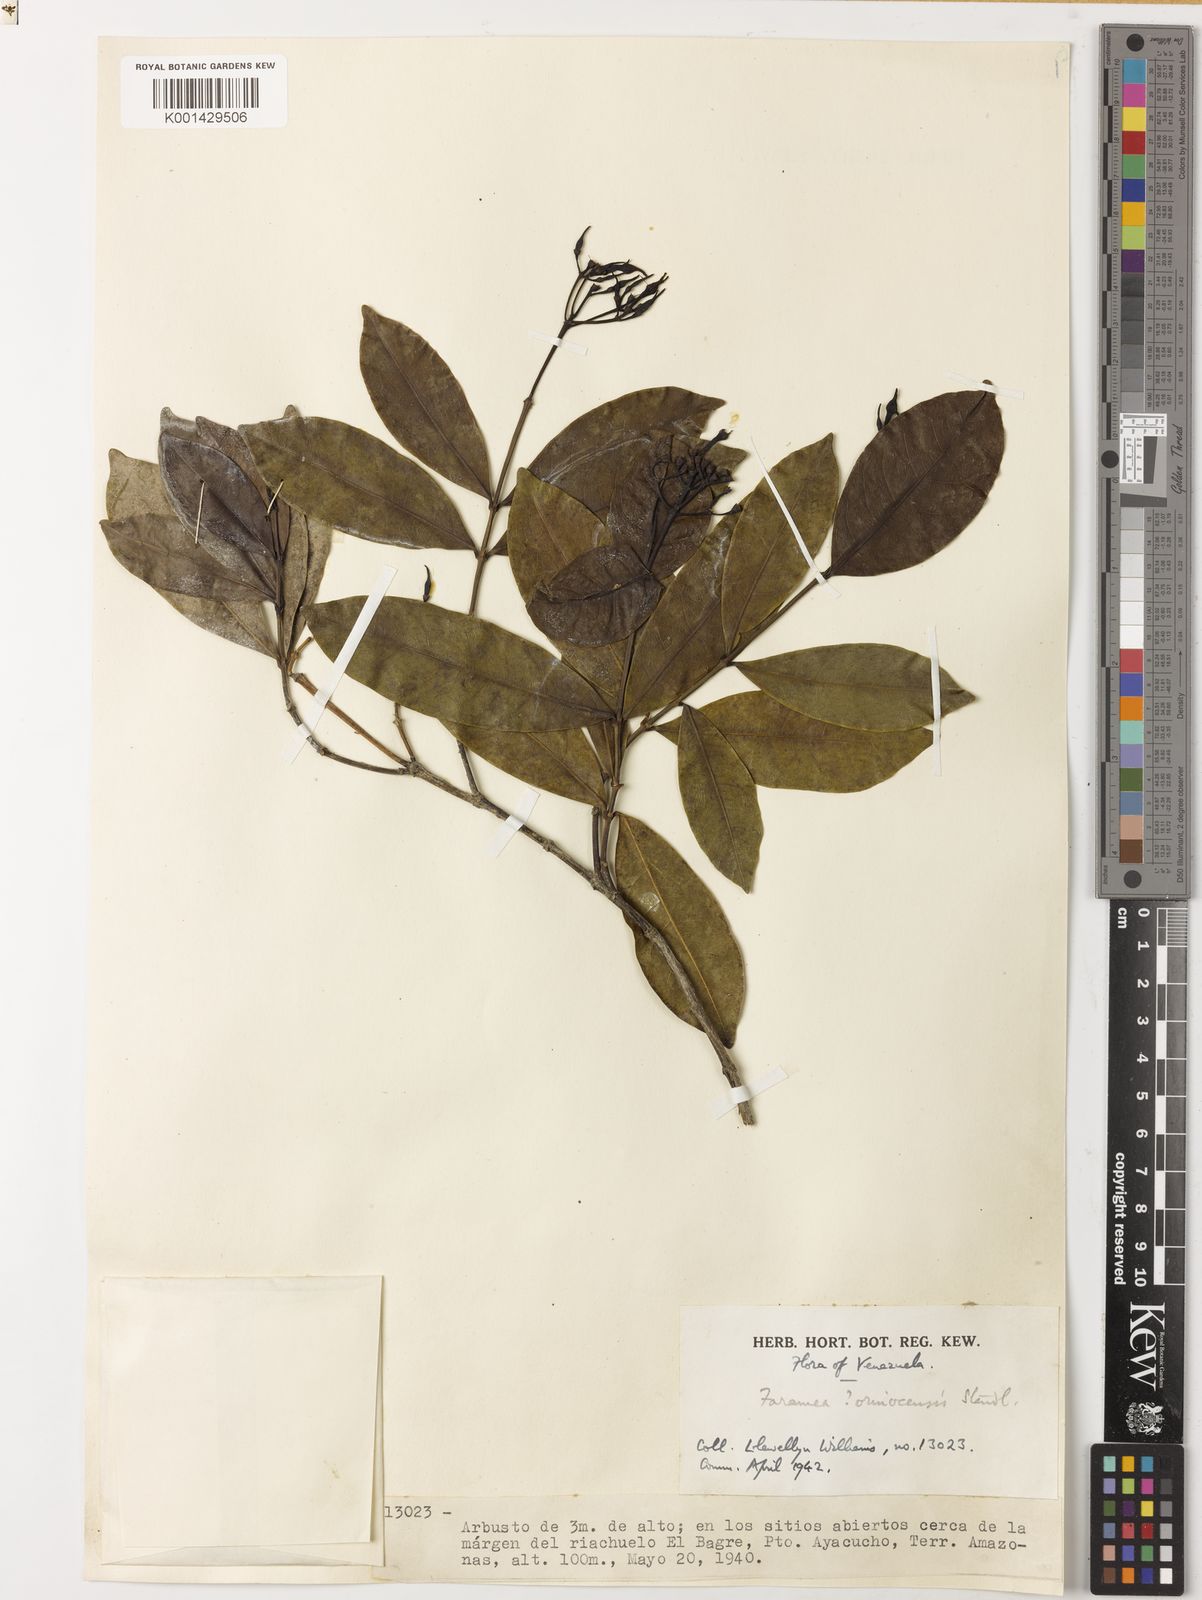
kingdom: Plantae
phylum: Tracheophyta
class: Magnoliopsida
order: Gentianales
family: Rubiaceae
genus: Faramea
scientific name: Faramea orinocencis
